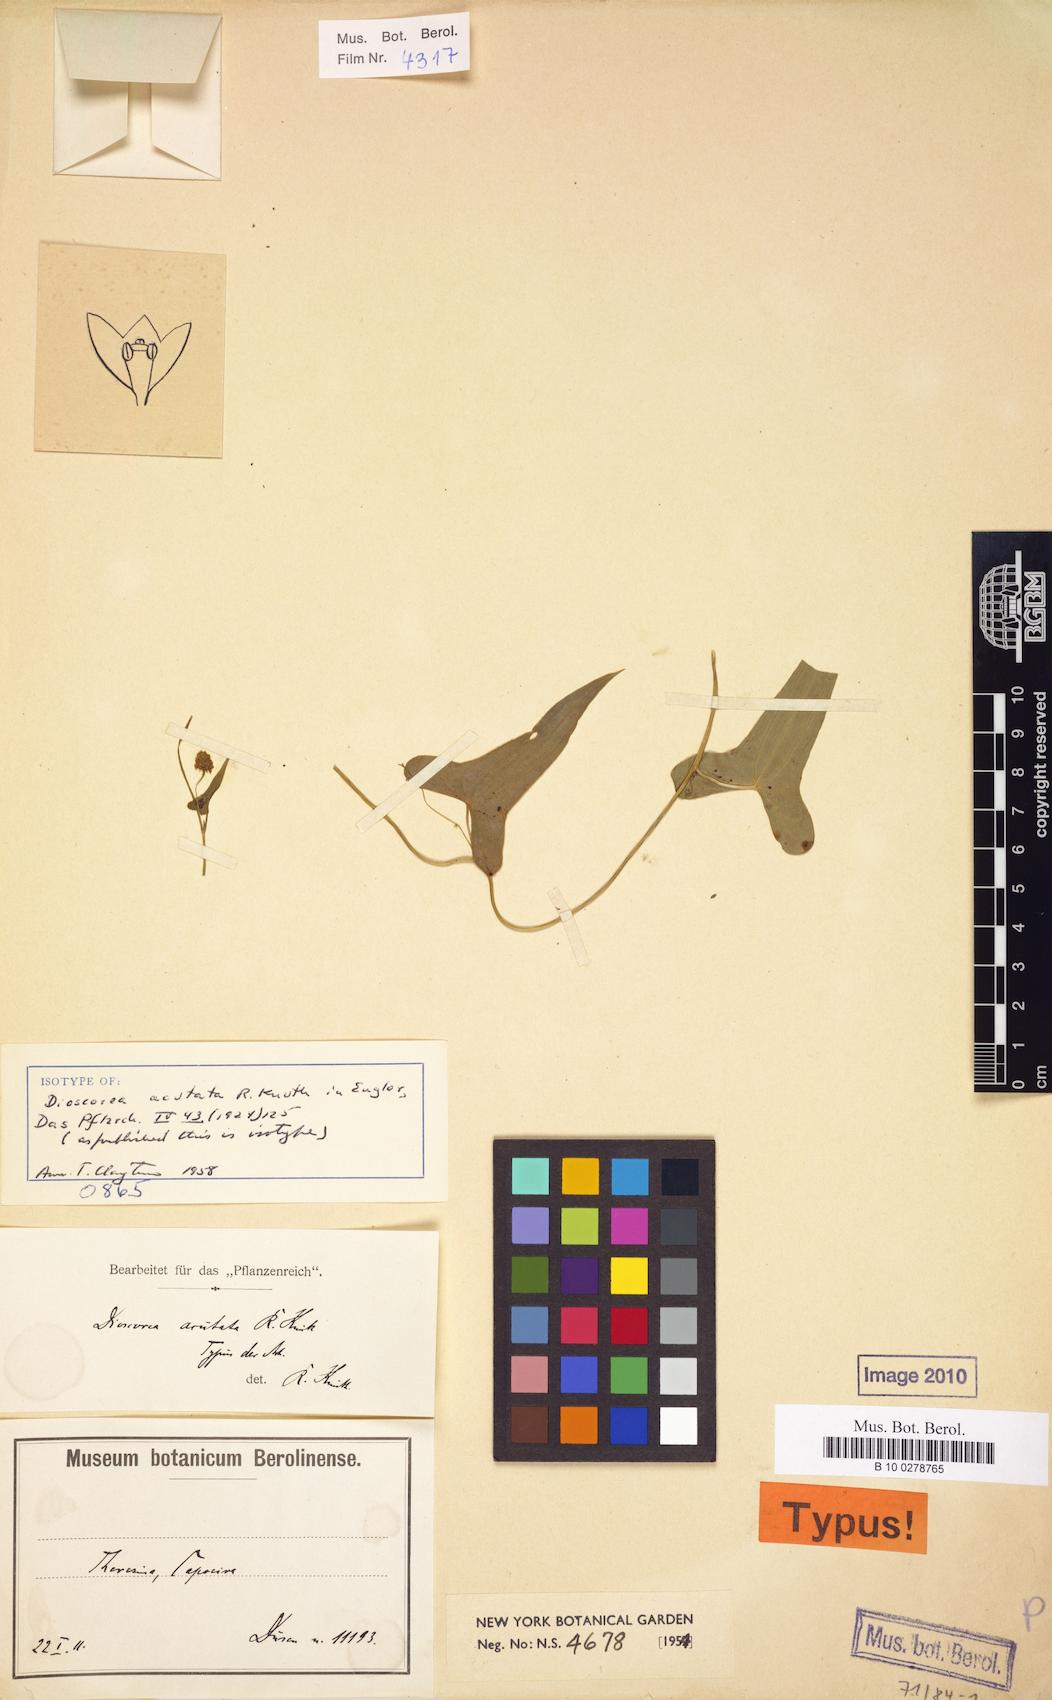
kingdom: Plantae
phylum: Tracheophyta
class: Liliopsida
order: Dioscoreales
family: Dioscoreaceae
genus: Dioscorea
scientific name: Dioscorea coronata
